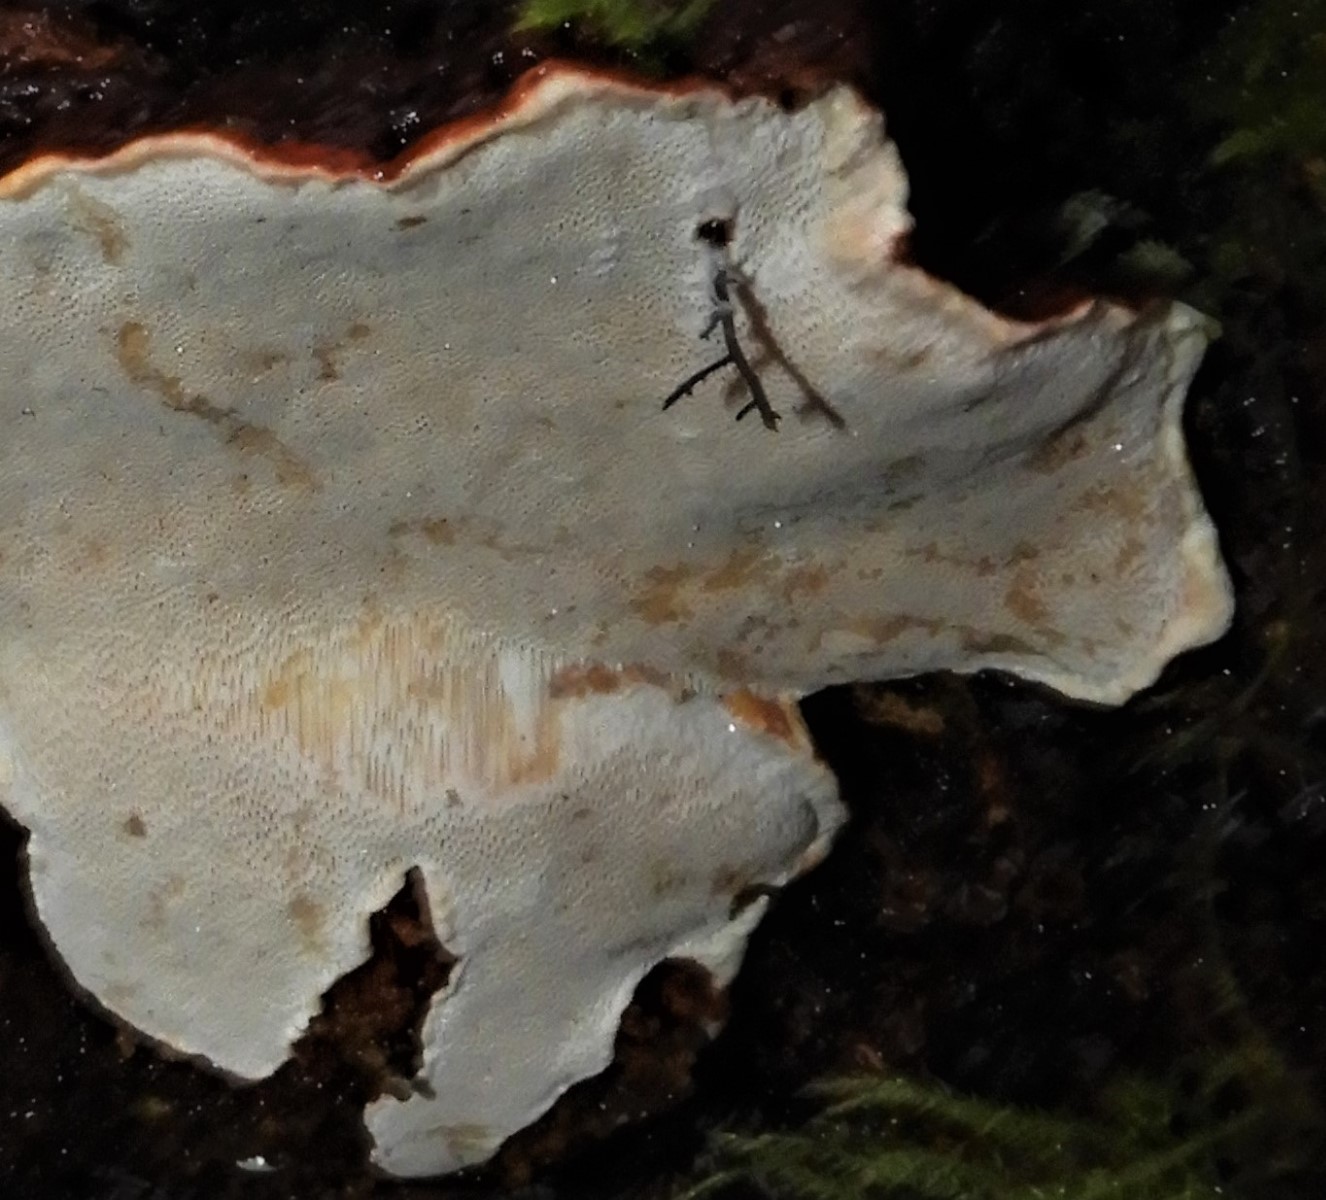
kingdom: Fungi
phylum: Basidiomycota
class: Agaricomycetes
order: Russulales
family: Bondarzewiaceae
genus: Heterobasidion
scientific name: Heterobasidion annosum
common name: almindelig rodfordærver
